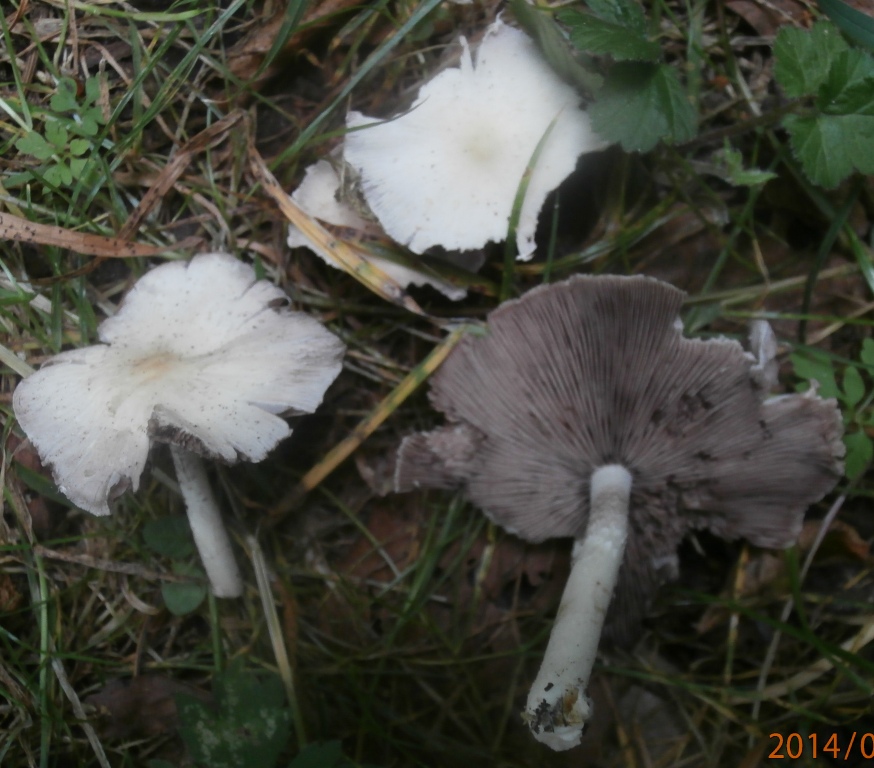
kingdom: Fungi
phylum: Basidiomycota
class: Agaricomycetes
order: Agaricales
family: Psathyrellaceae
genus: Candolleomyces
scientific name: Candolleomyces candolleanus
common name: Candolles mørkhat
